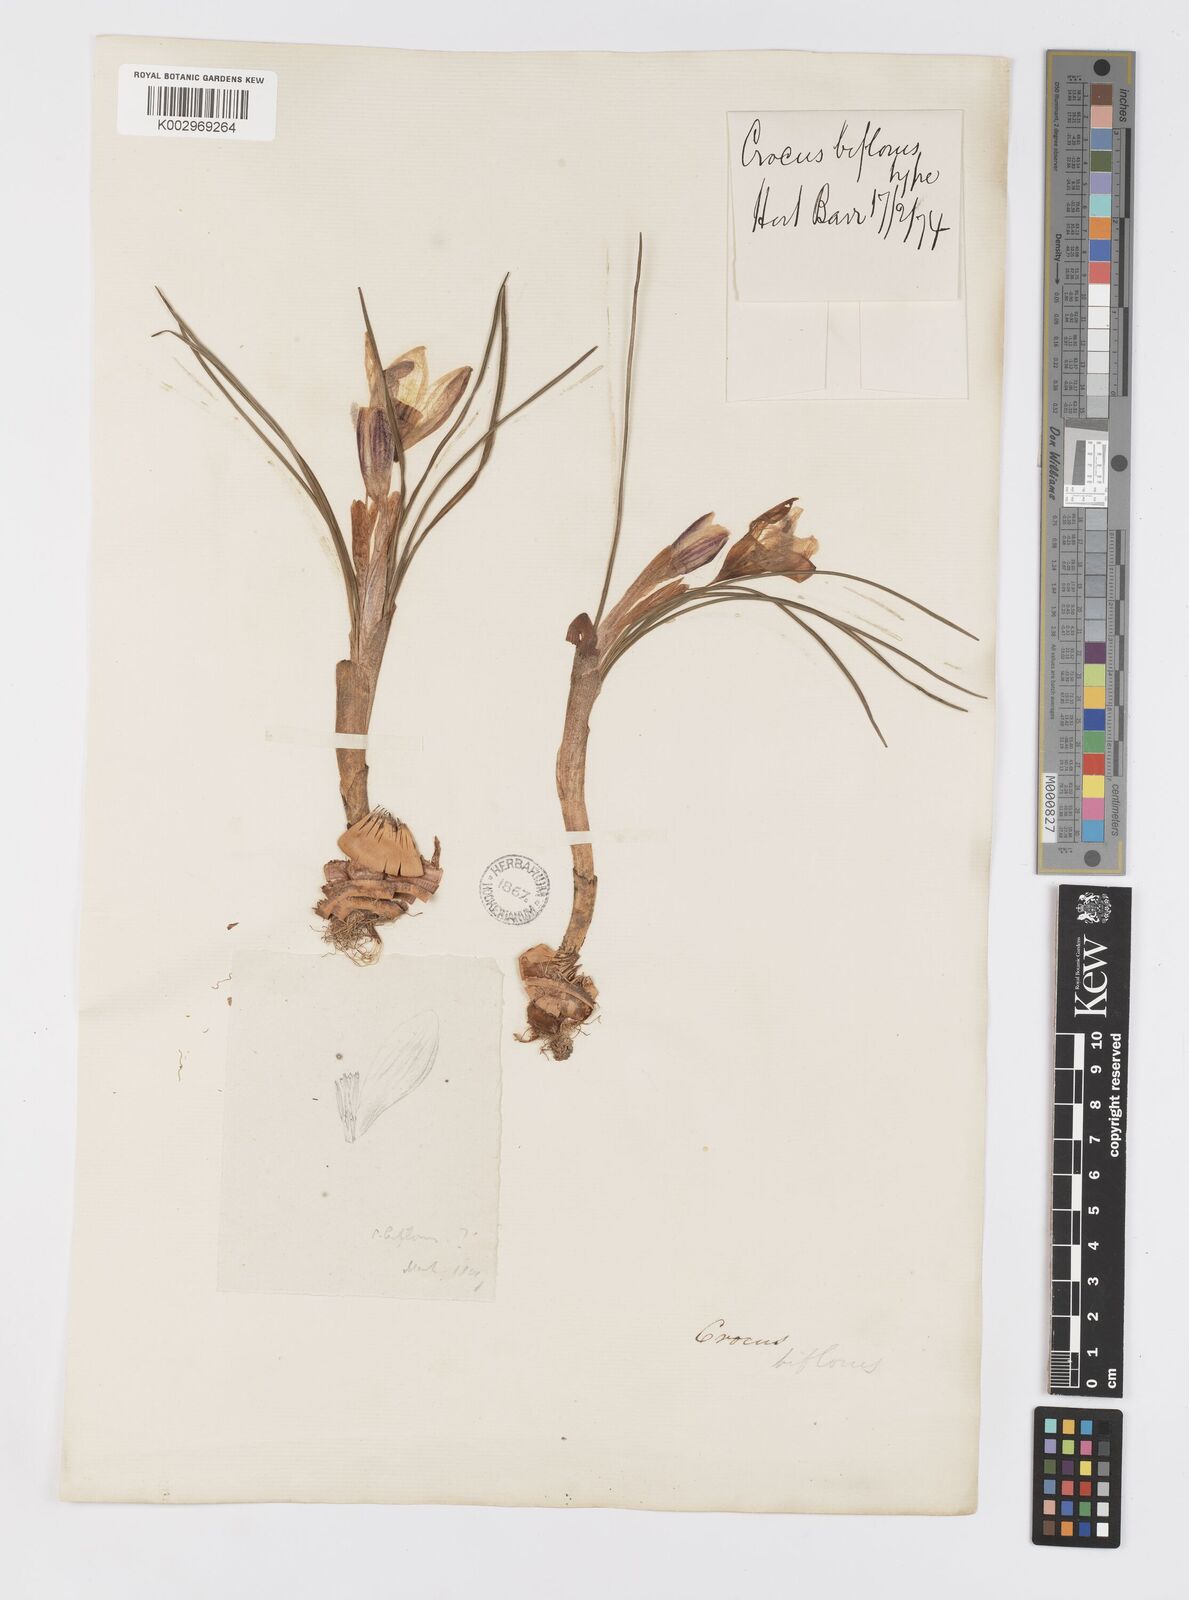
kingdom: Plantae
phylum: Tracheophyta
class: Liliopsida
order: Asparagales
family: Iridaceae
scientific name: Iridaceae
